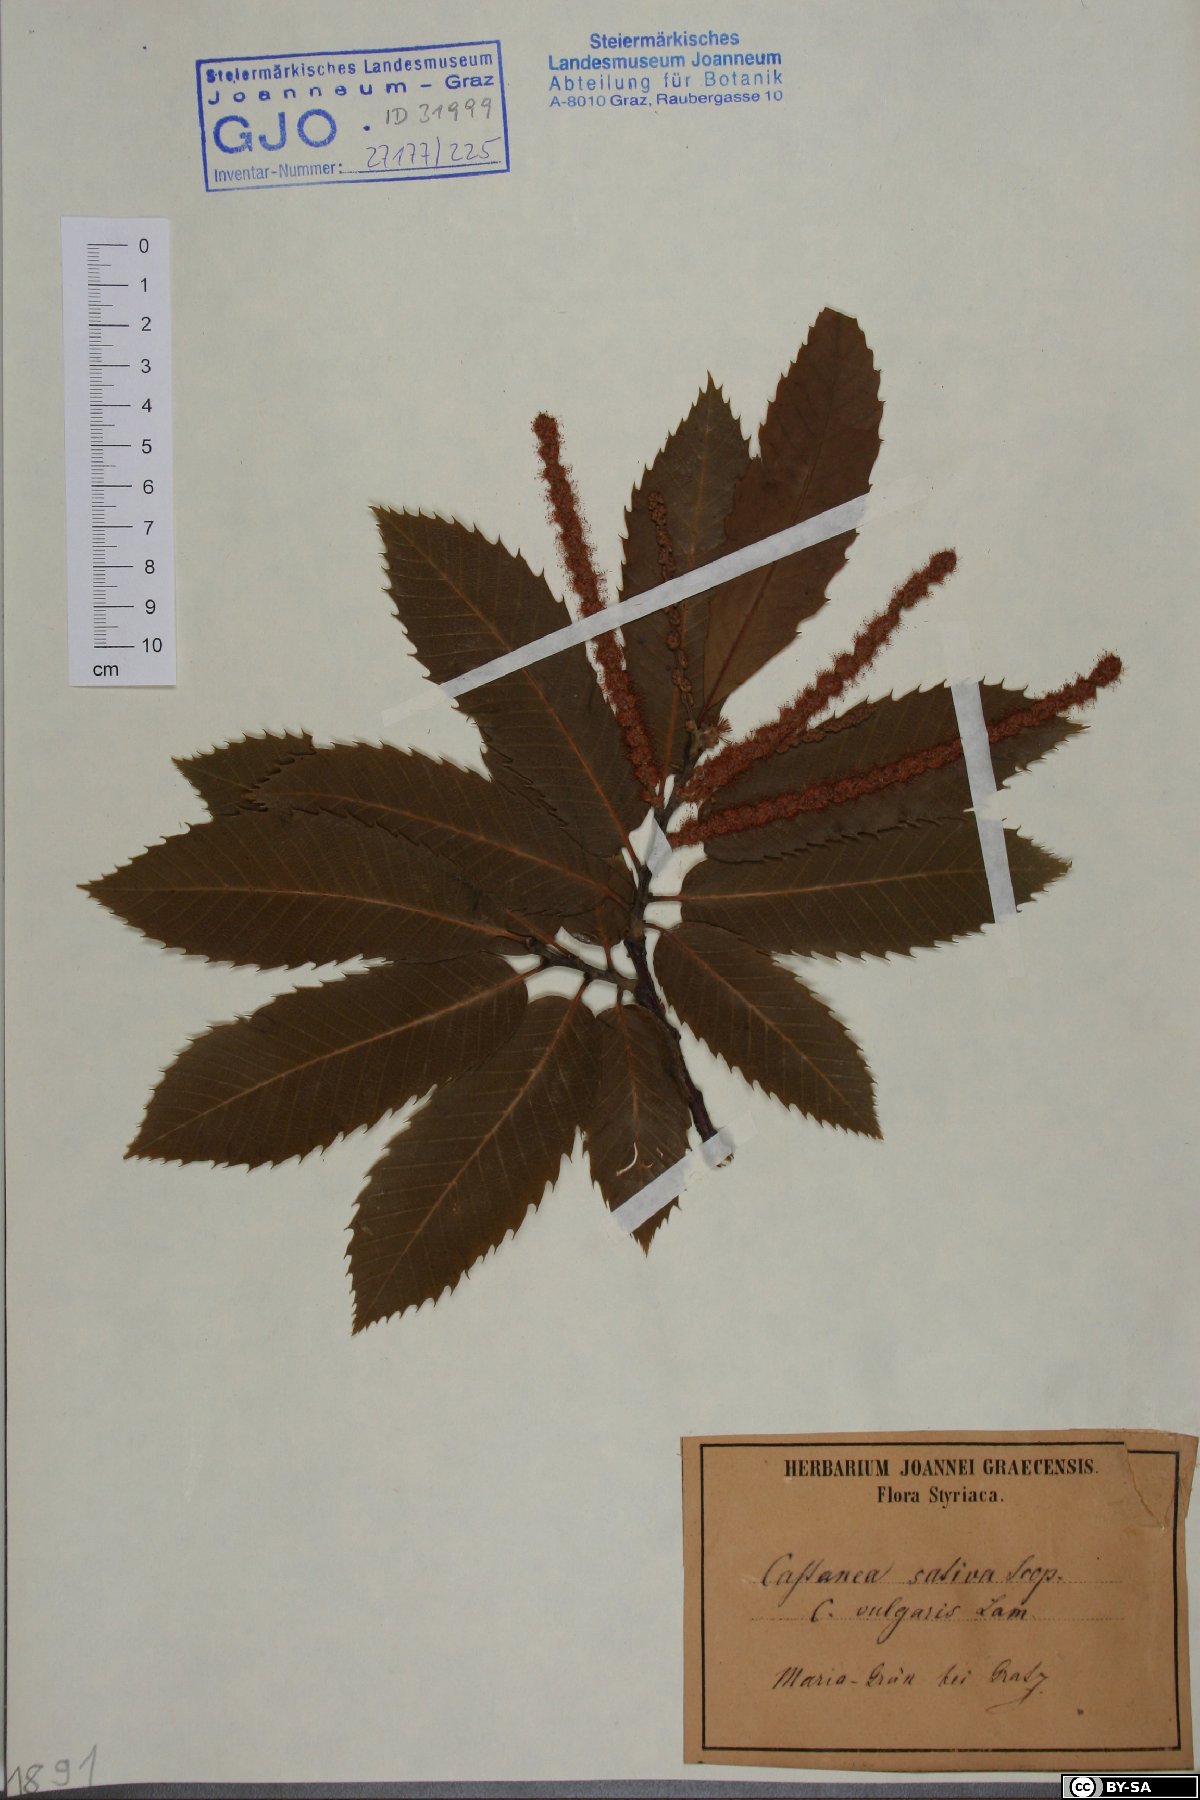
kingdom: Plantae
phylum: Tracheophyta
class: Magnoliopsida
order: Fagales
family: Fagaceae
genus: Castanea
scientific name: Castanea sativa
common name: Sweet chestnut
